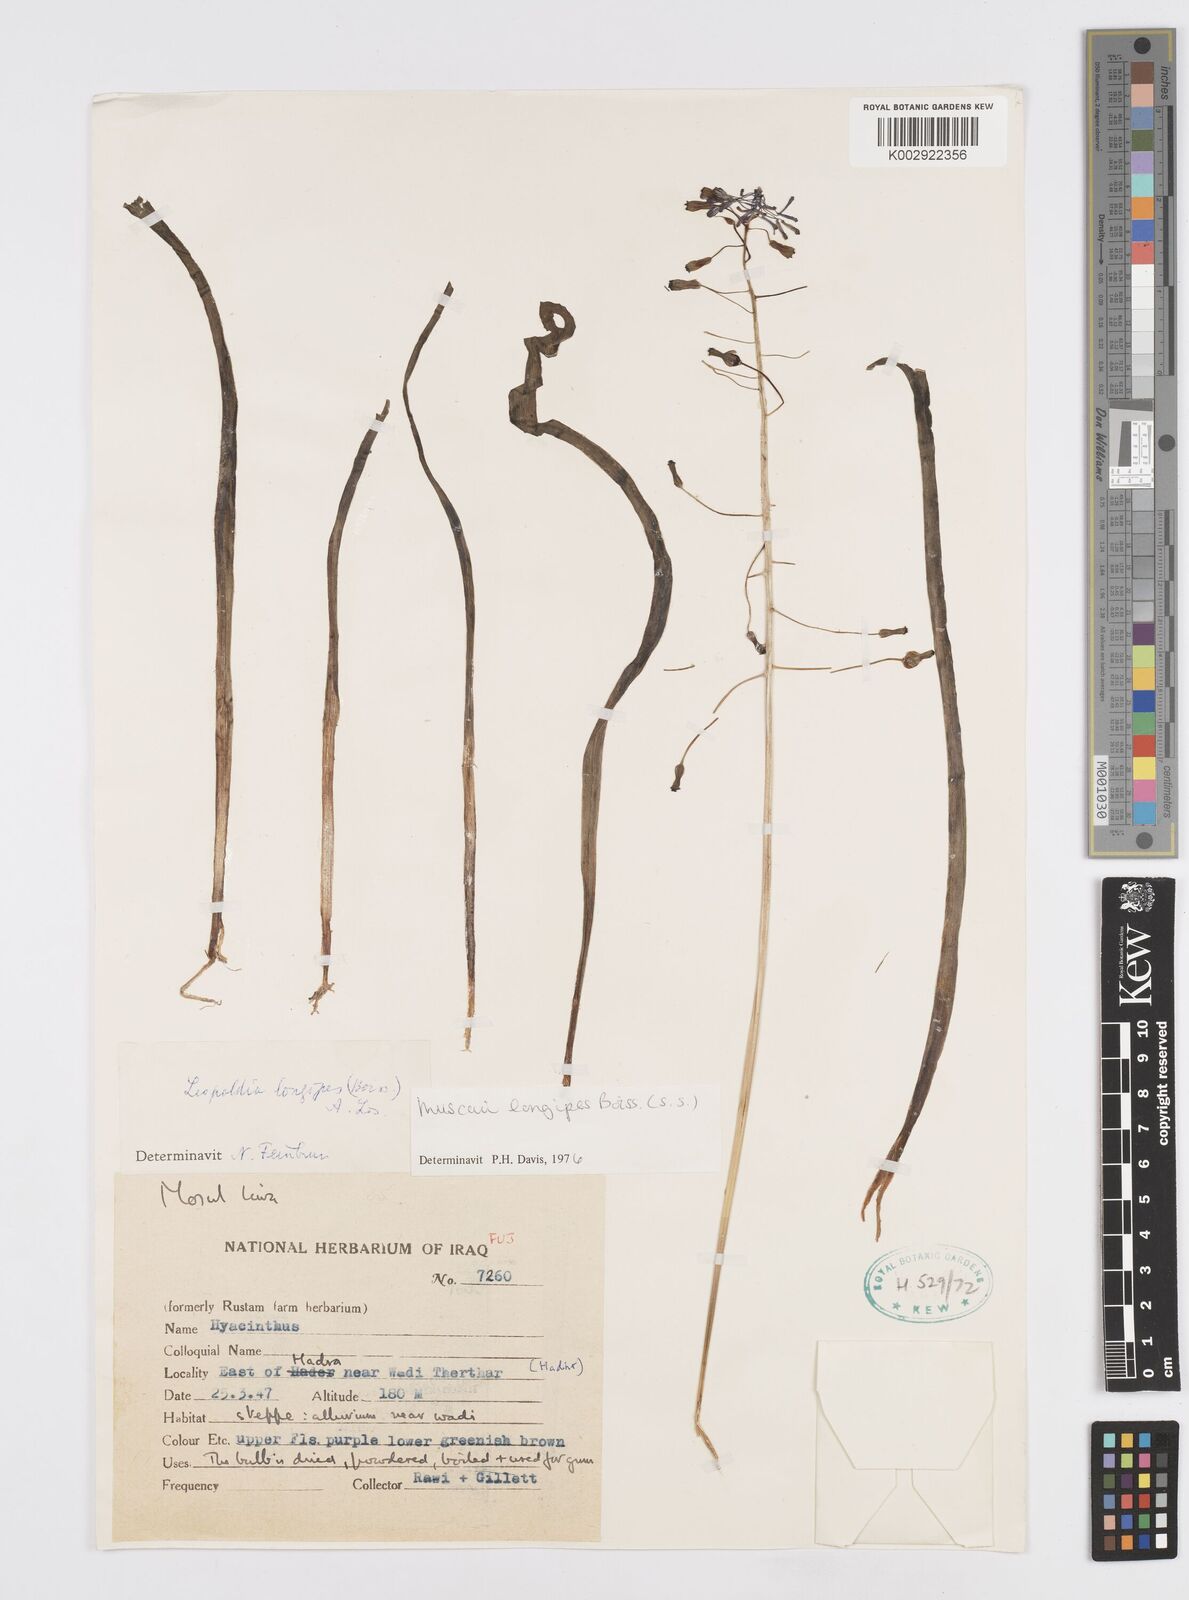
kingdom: Plantae
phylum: Tracheophyta
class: Liliopsida
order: Asparagales
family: Asparagaceae
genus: Muscari
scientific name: Muscari longipes
